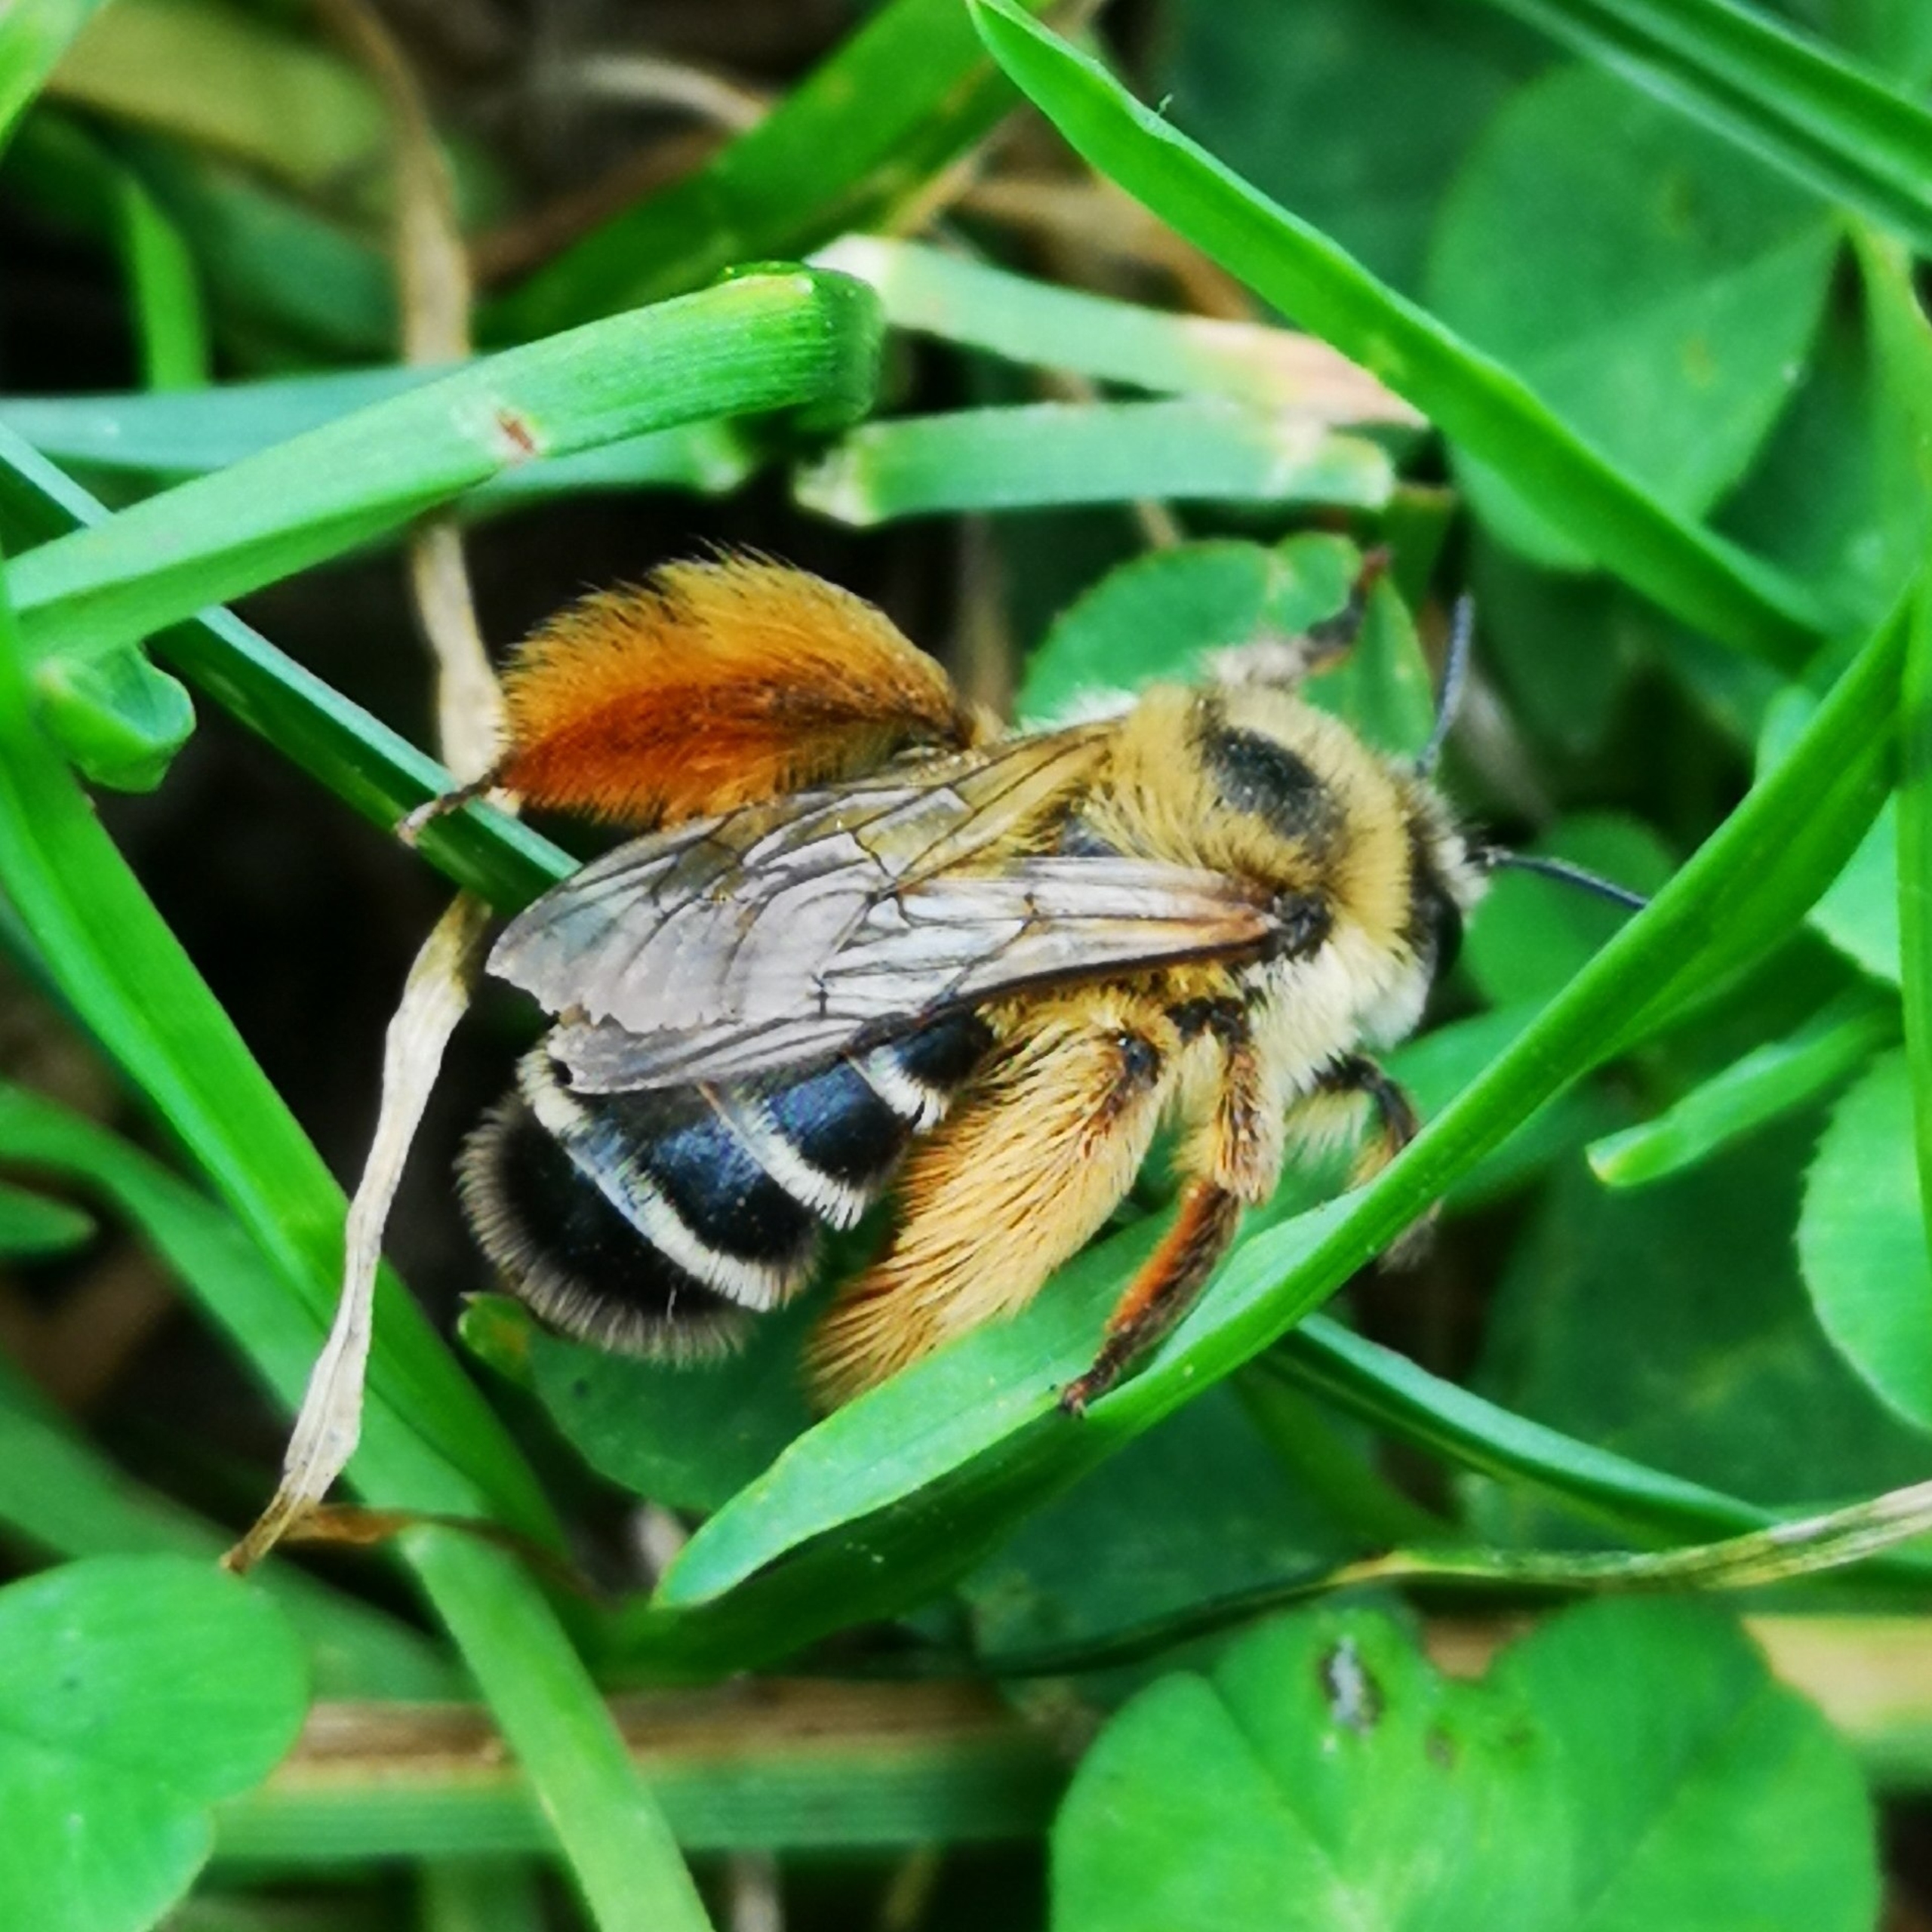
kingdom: Animalia
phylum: Arthropoda
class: Insecta
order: Hymenoptera
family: Melittidae
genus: Dasypoda
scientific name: Dasypoda hirtipes
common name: Pragtbuksebi
